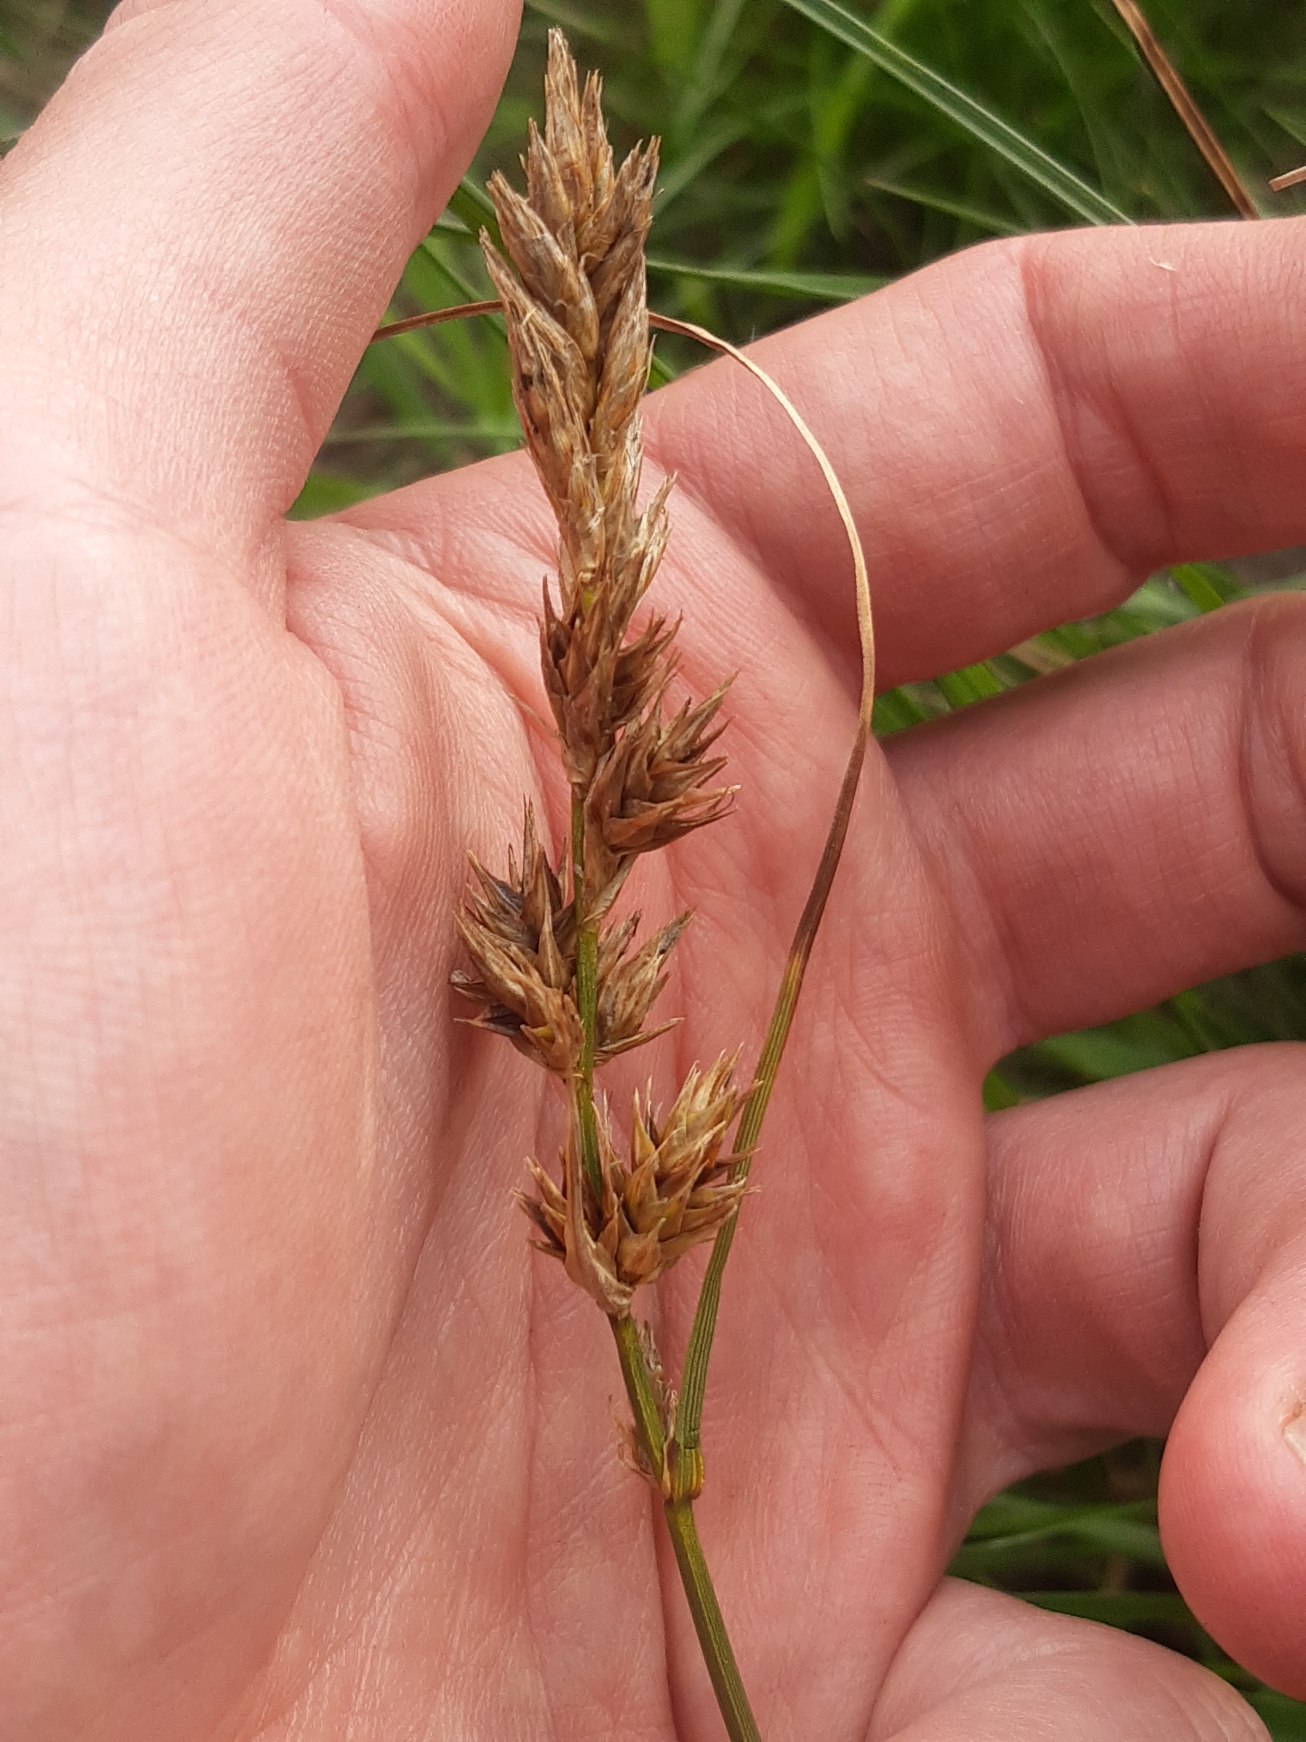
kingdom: Plantae
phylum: Tracheophyta
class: Liliopsida
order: Poales
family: Cyperaceae
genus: Carex
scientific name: Carex arenaria
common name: Sand-star
